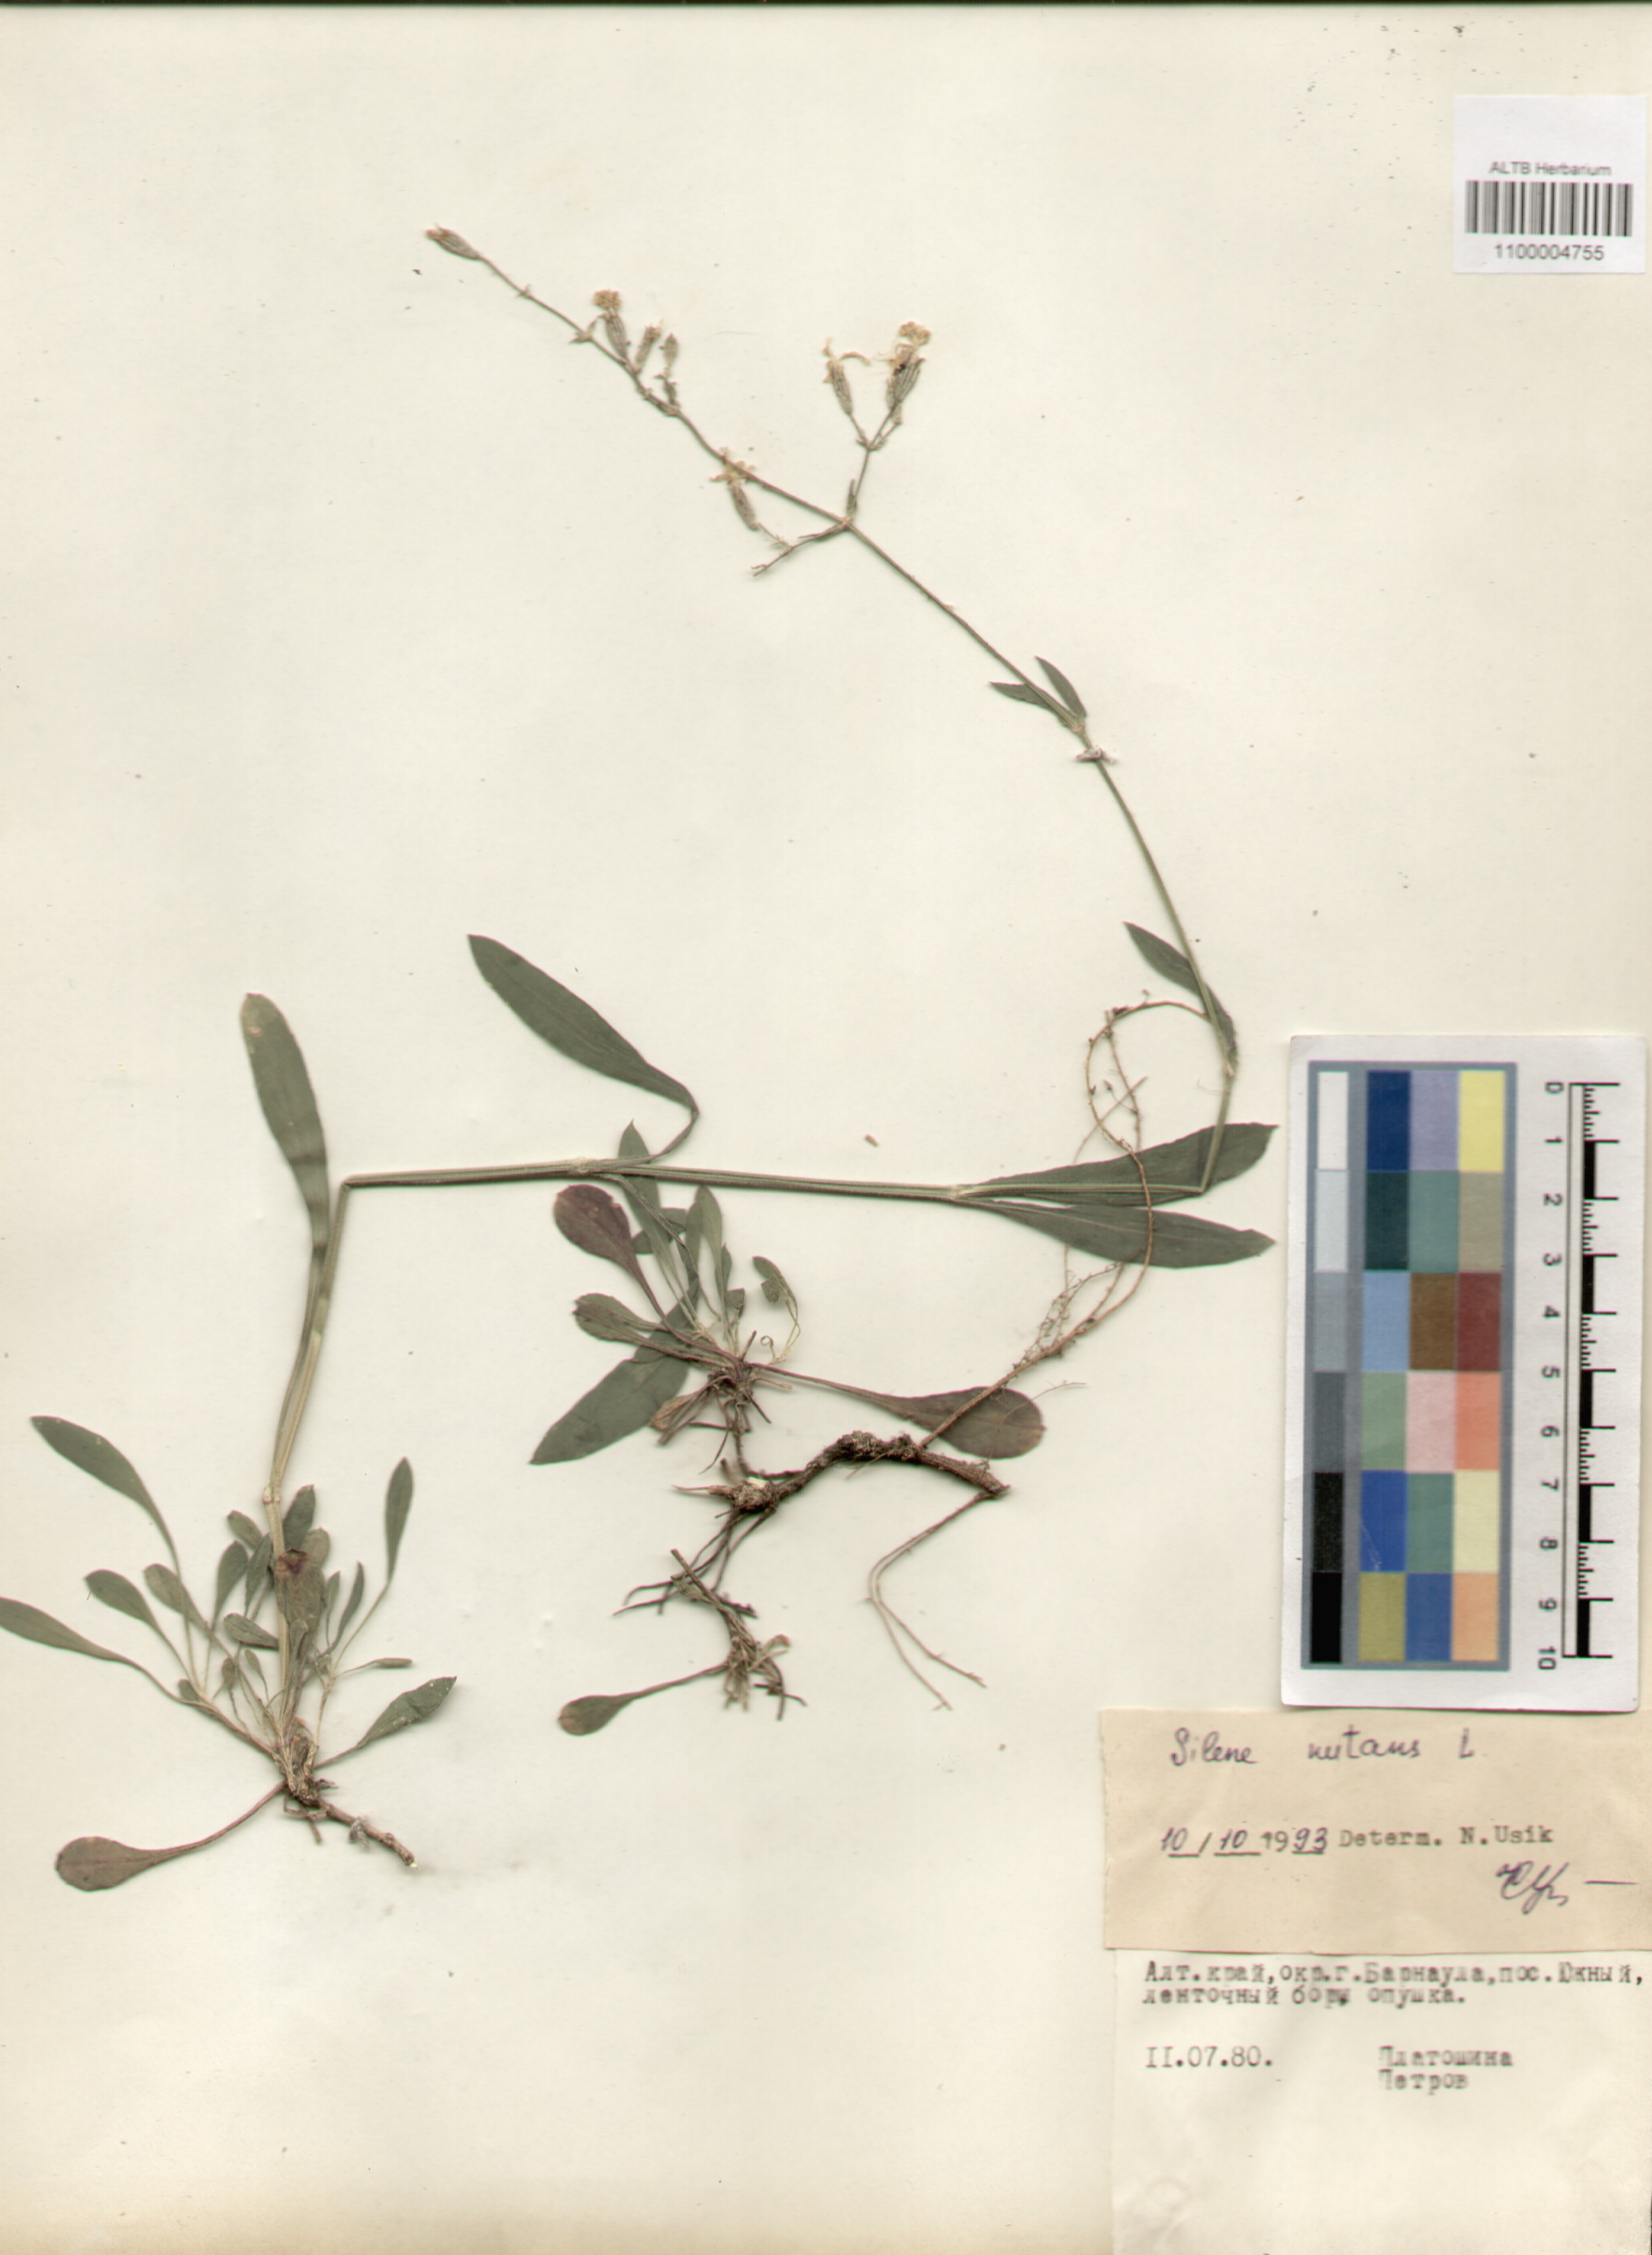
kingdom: Plantae
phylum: Tracheophyta
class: Magnoliopsida
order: Caryophyllales
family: Caryophyllaceae
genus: Silene
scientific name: Silene nutans
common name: Nottingham catchfly
